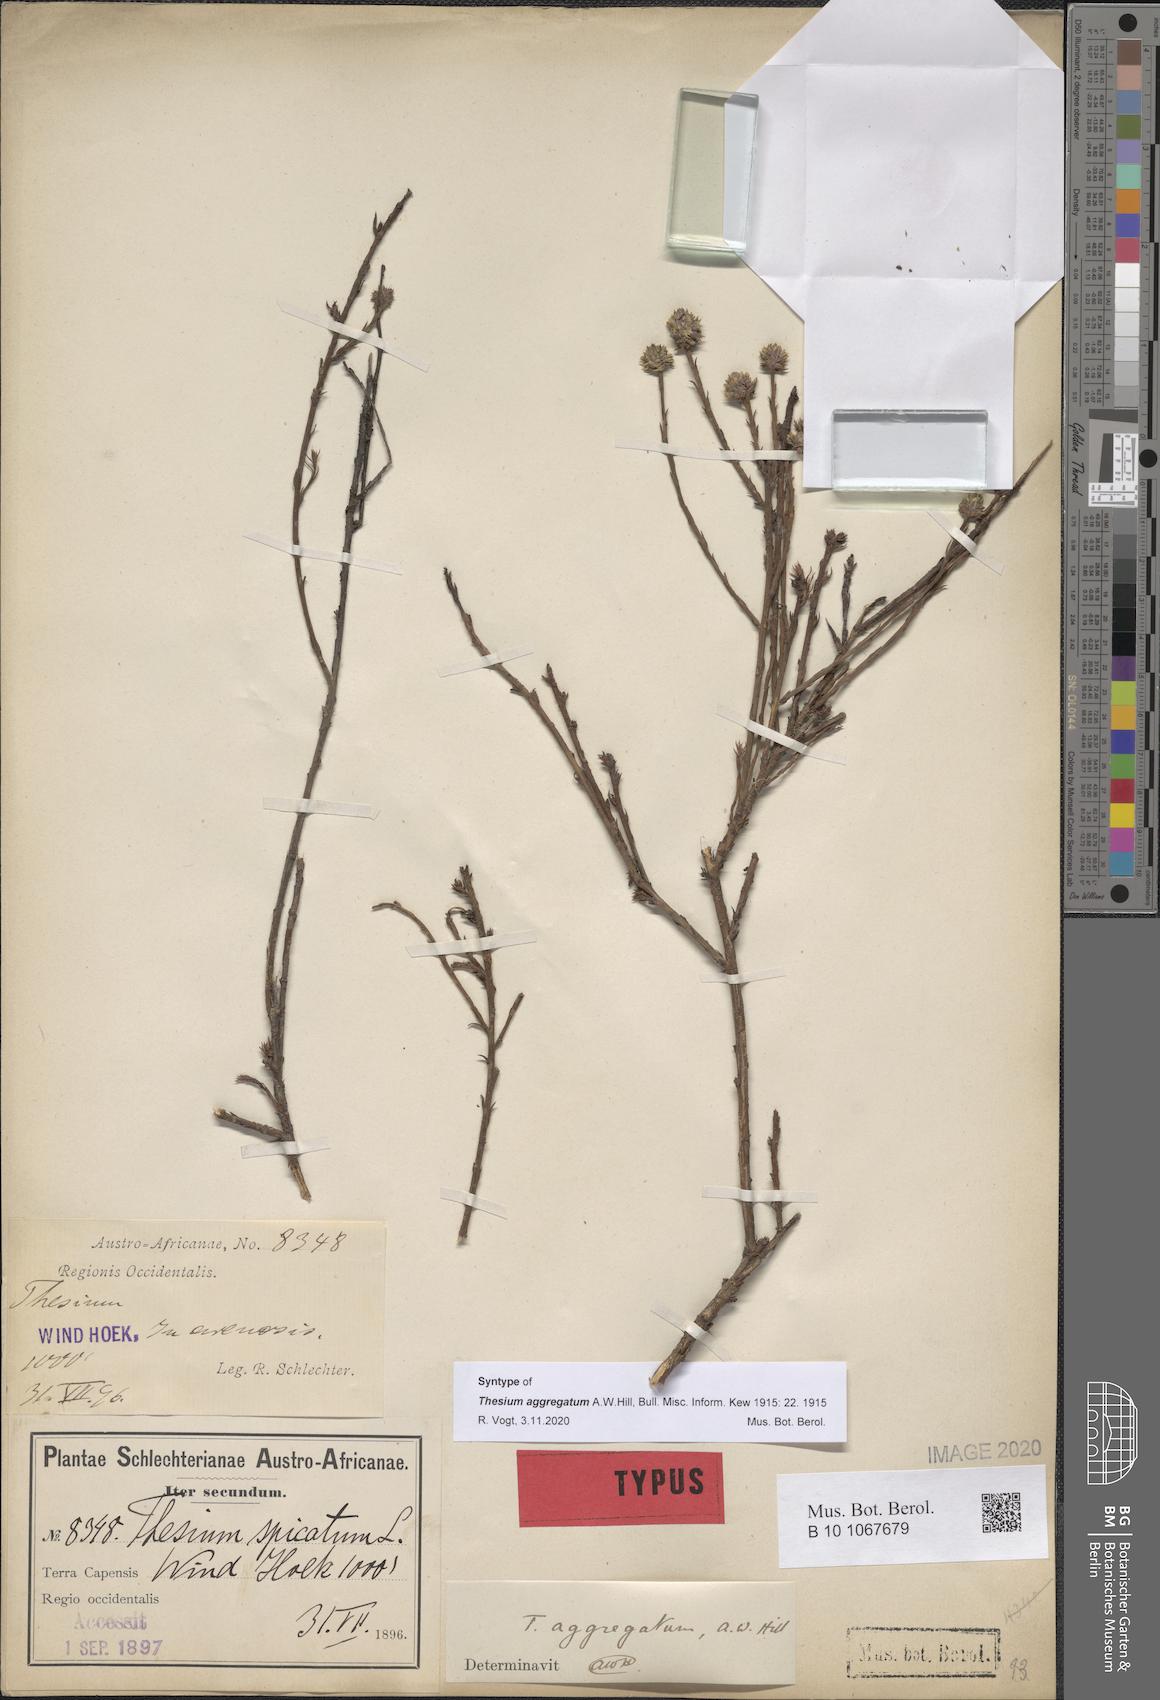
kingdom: Plantae
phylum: Tracheophyta
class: Magnoliopsida
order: Santalales
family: Thesiaceae
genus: Thesium
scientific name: Thesium aggregatum
